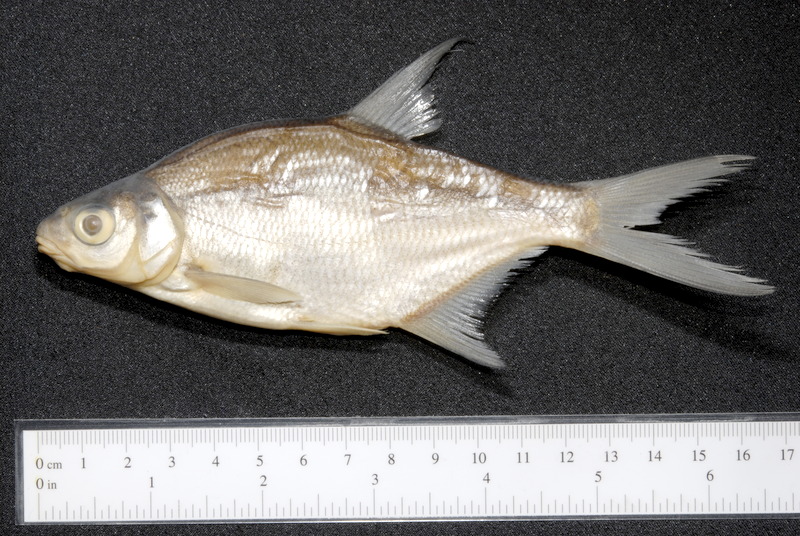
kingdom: Animalia
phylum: Chordata
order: Cypriniformes
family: Cyprinidae
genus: Abramis
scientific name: Abramis brama
